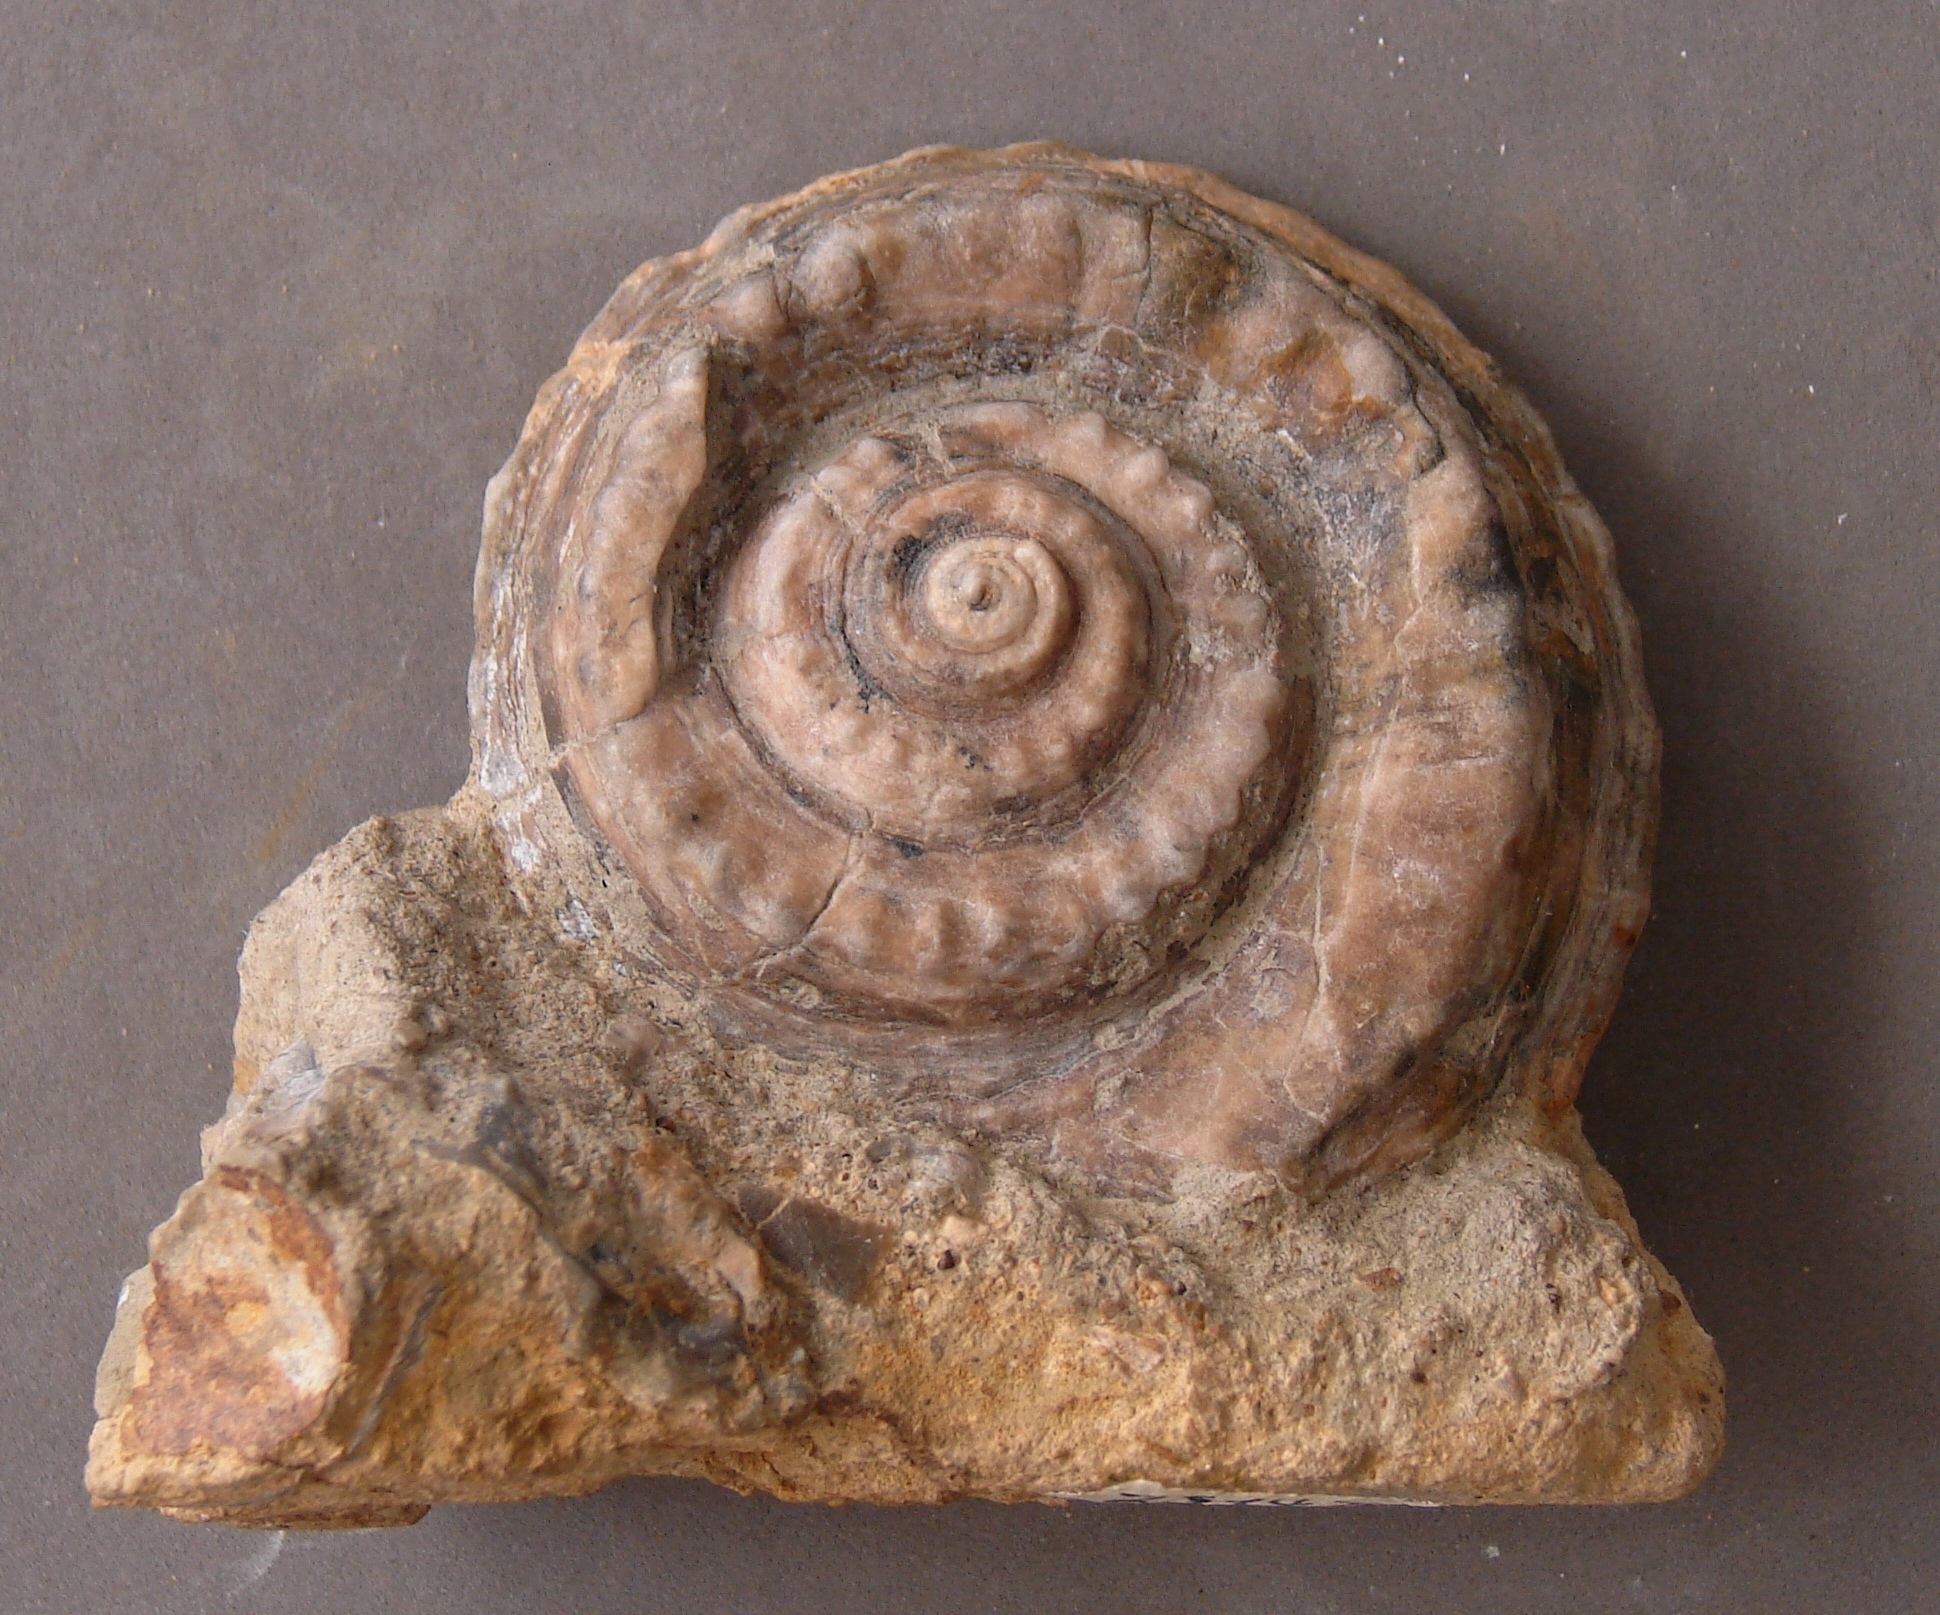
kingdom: Animalia
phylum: Mollusca
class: Gastropoda
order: Pleurotomariida
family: Pleurotomariidae
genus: Pleurotomaria
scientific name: Pleurotomaria
